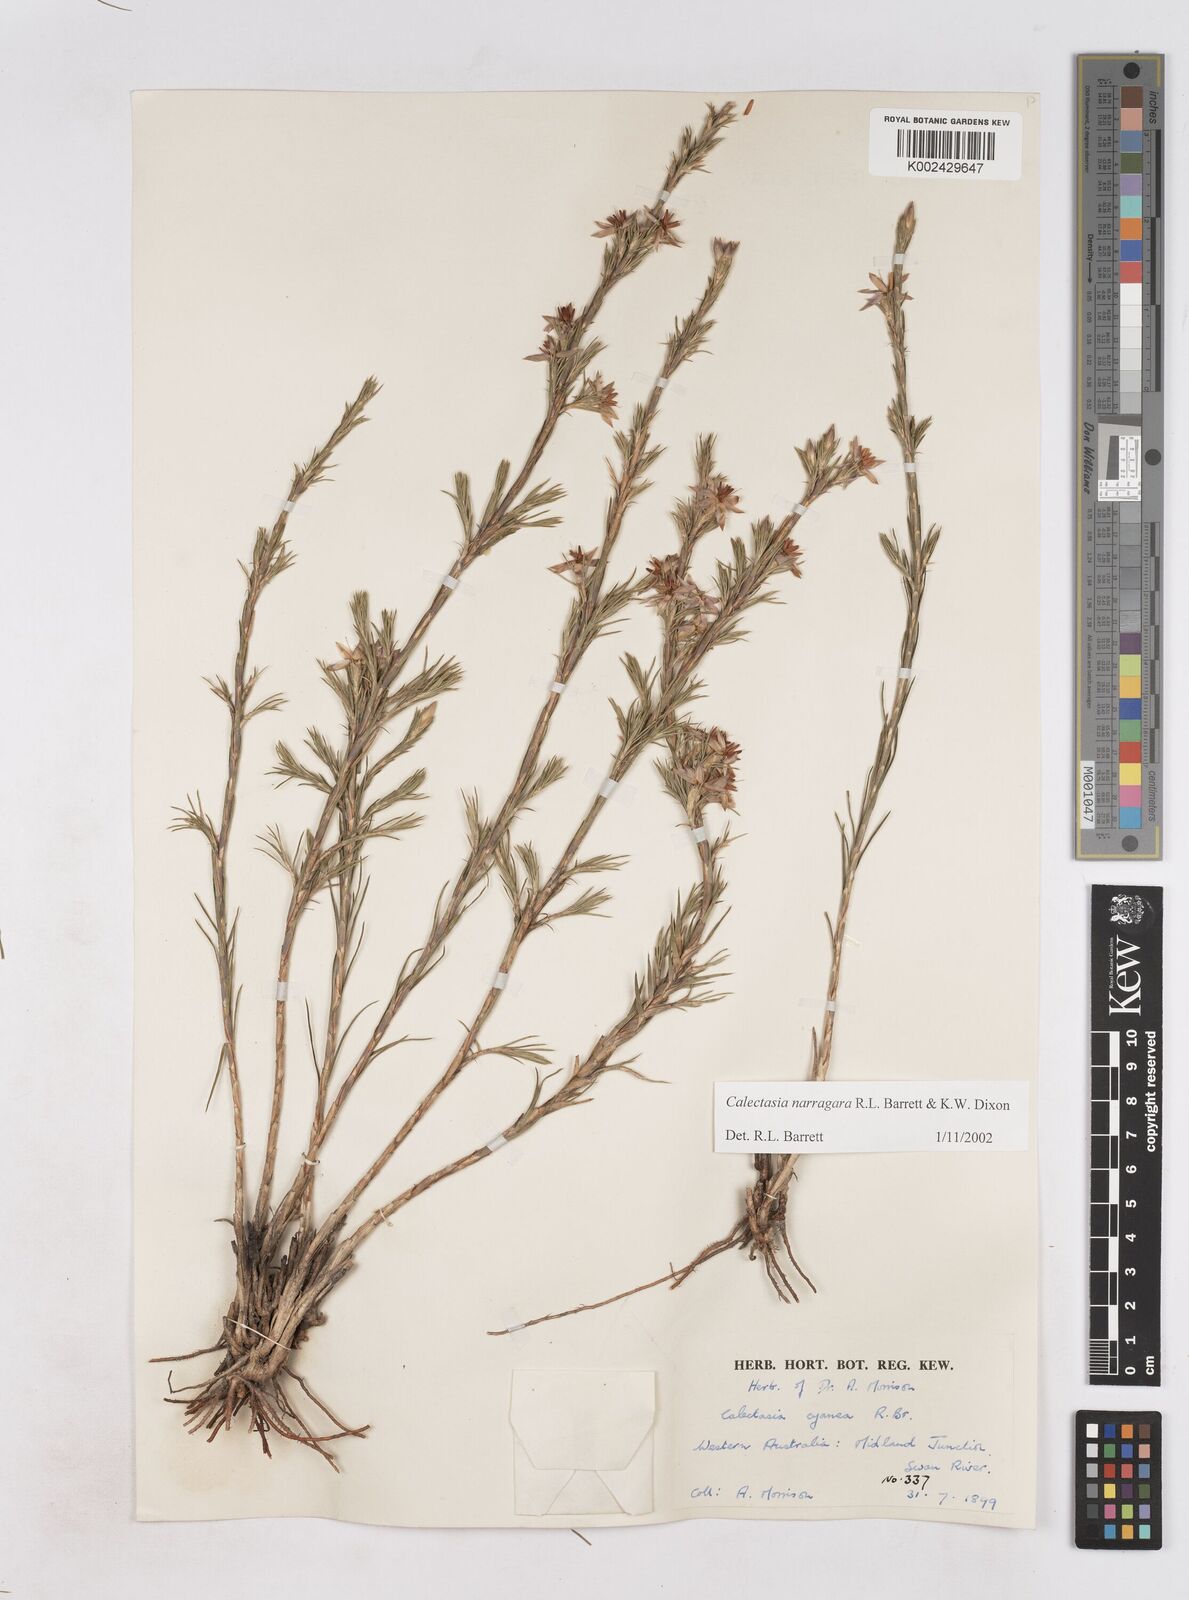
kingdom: Plantae
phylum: Tracheophyta
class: Liliopsida
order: Arecales
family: Dasypogonaceae
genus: Calectasia
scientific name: Calectasia narragara
